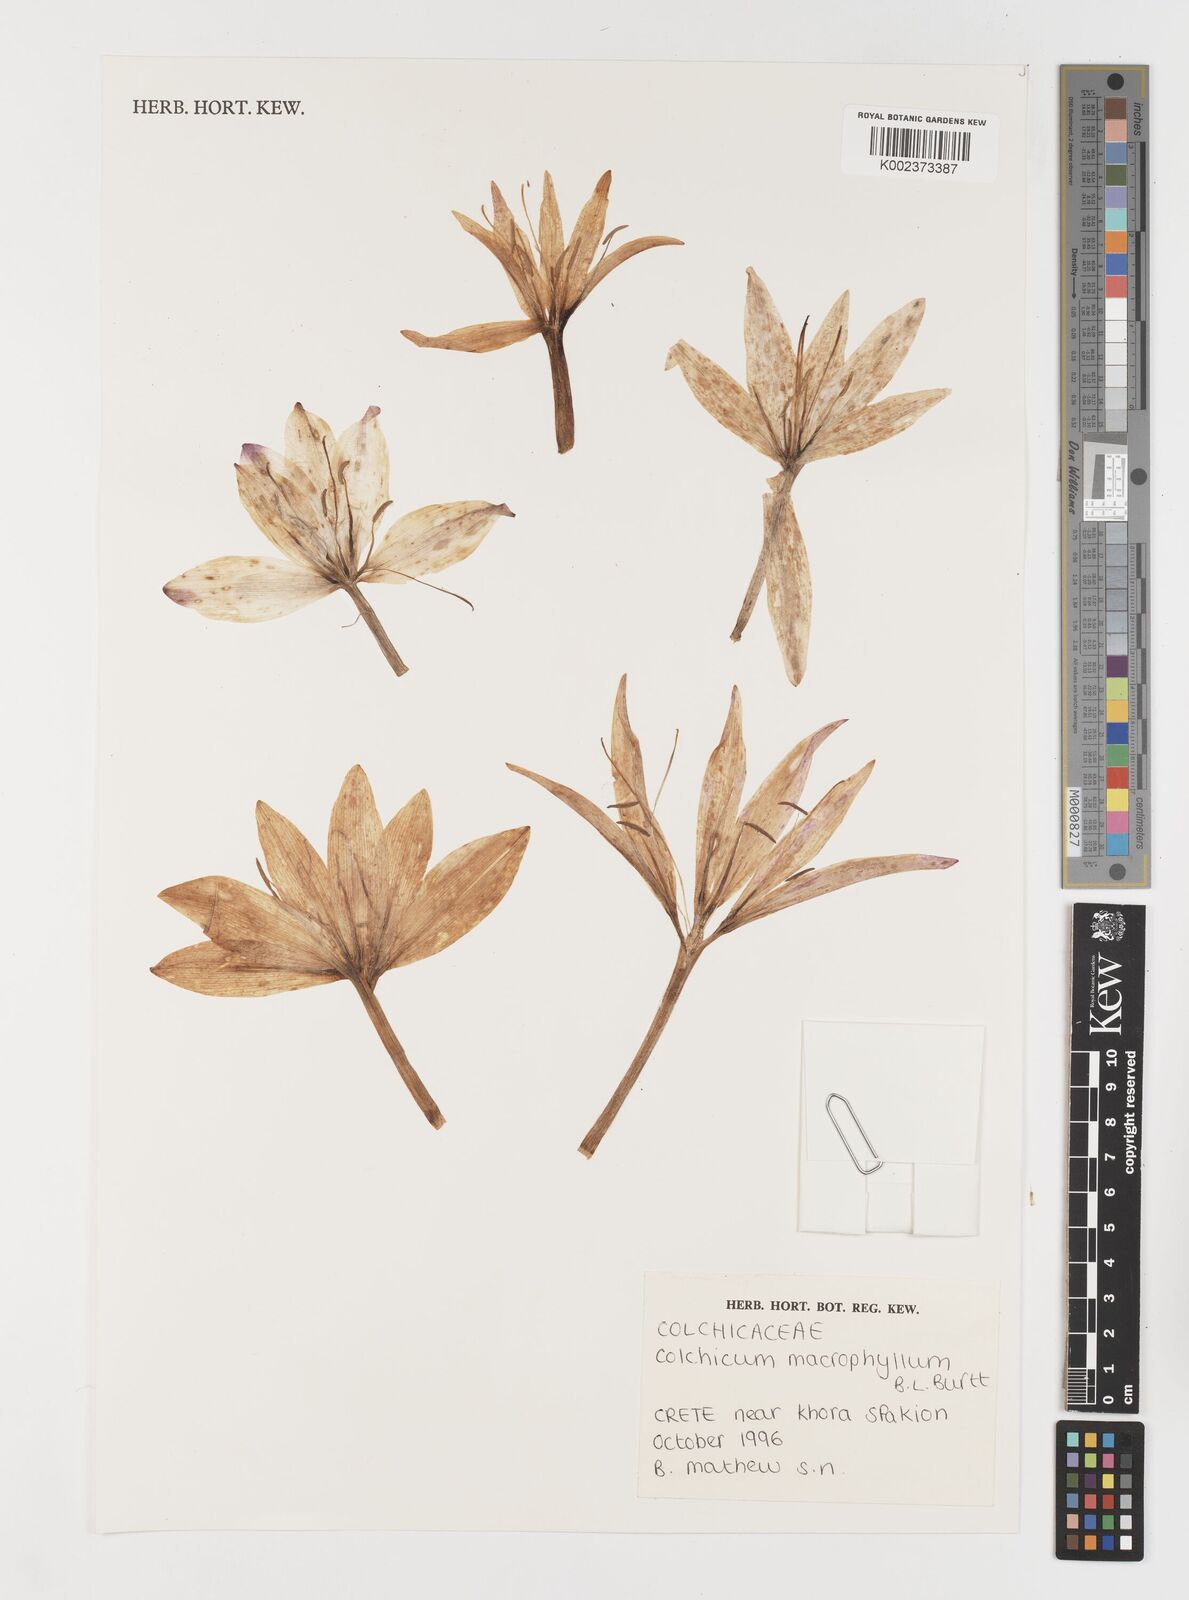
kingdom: Plantae
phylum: Tracheophyta
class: Liliopsida
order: Liliales
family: Colchicaceae
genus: Colchicum
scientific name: Colchicum macrophyllum
